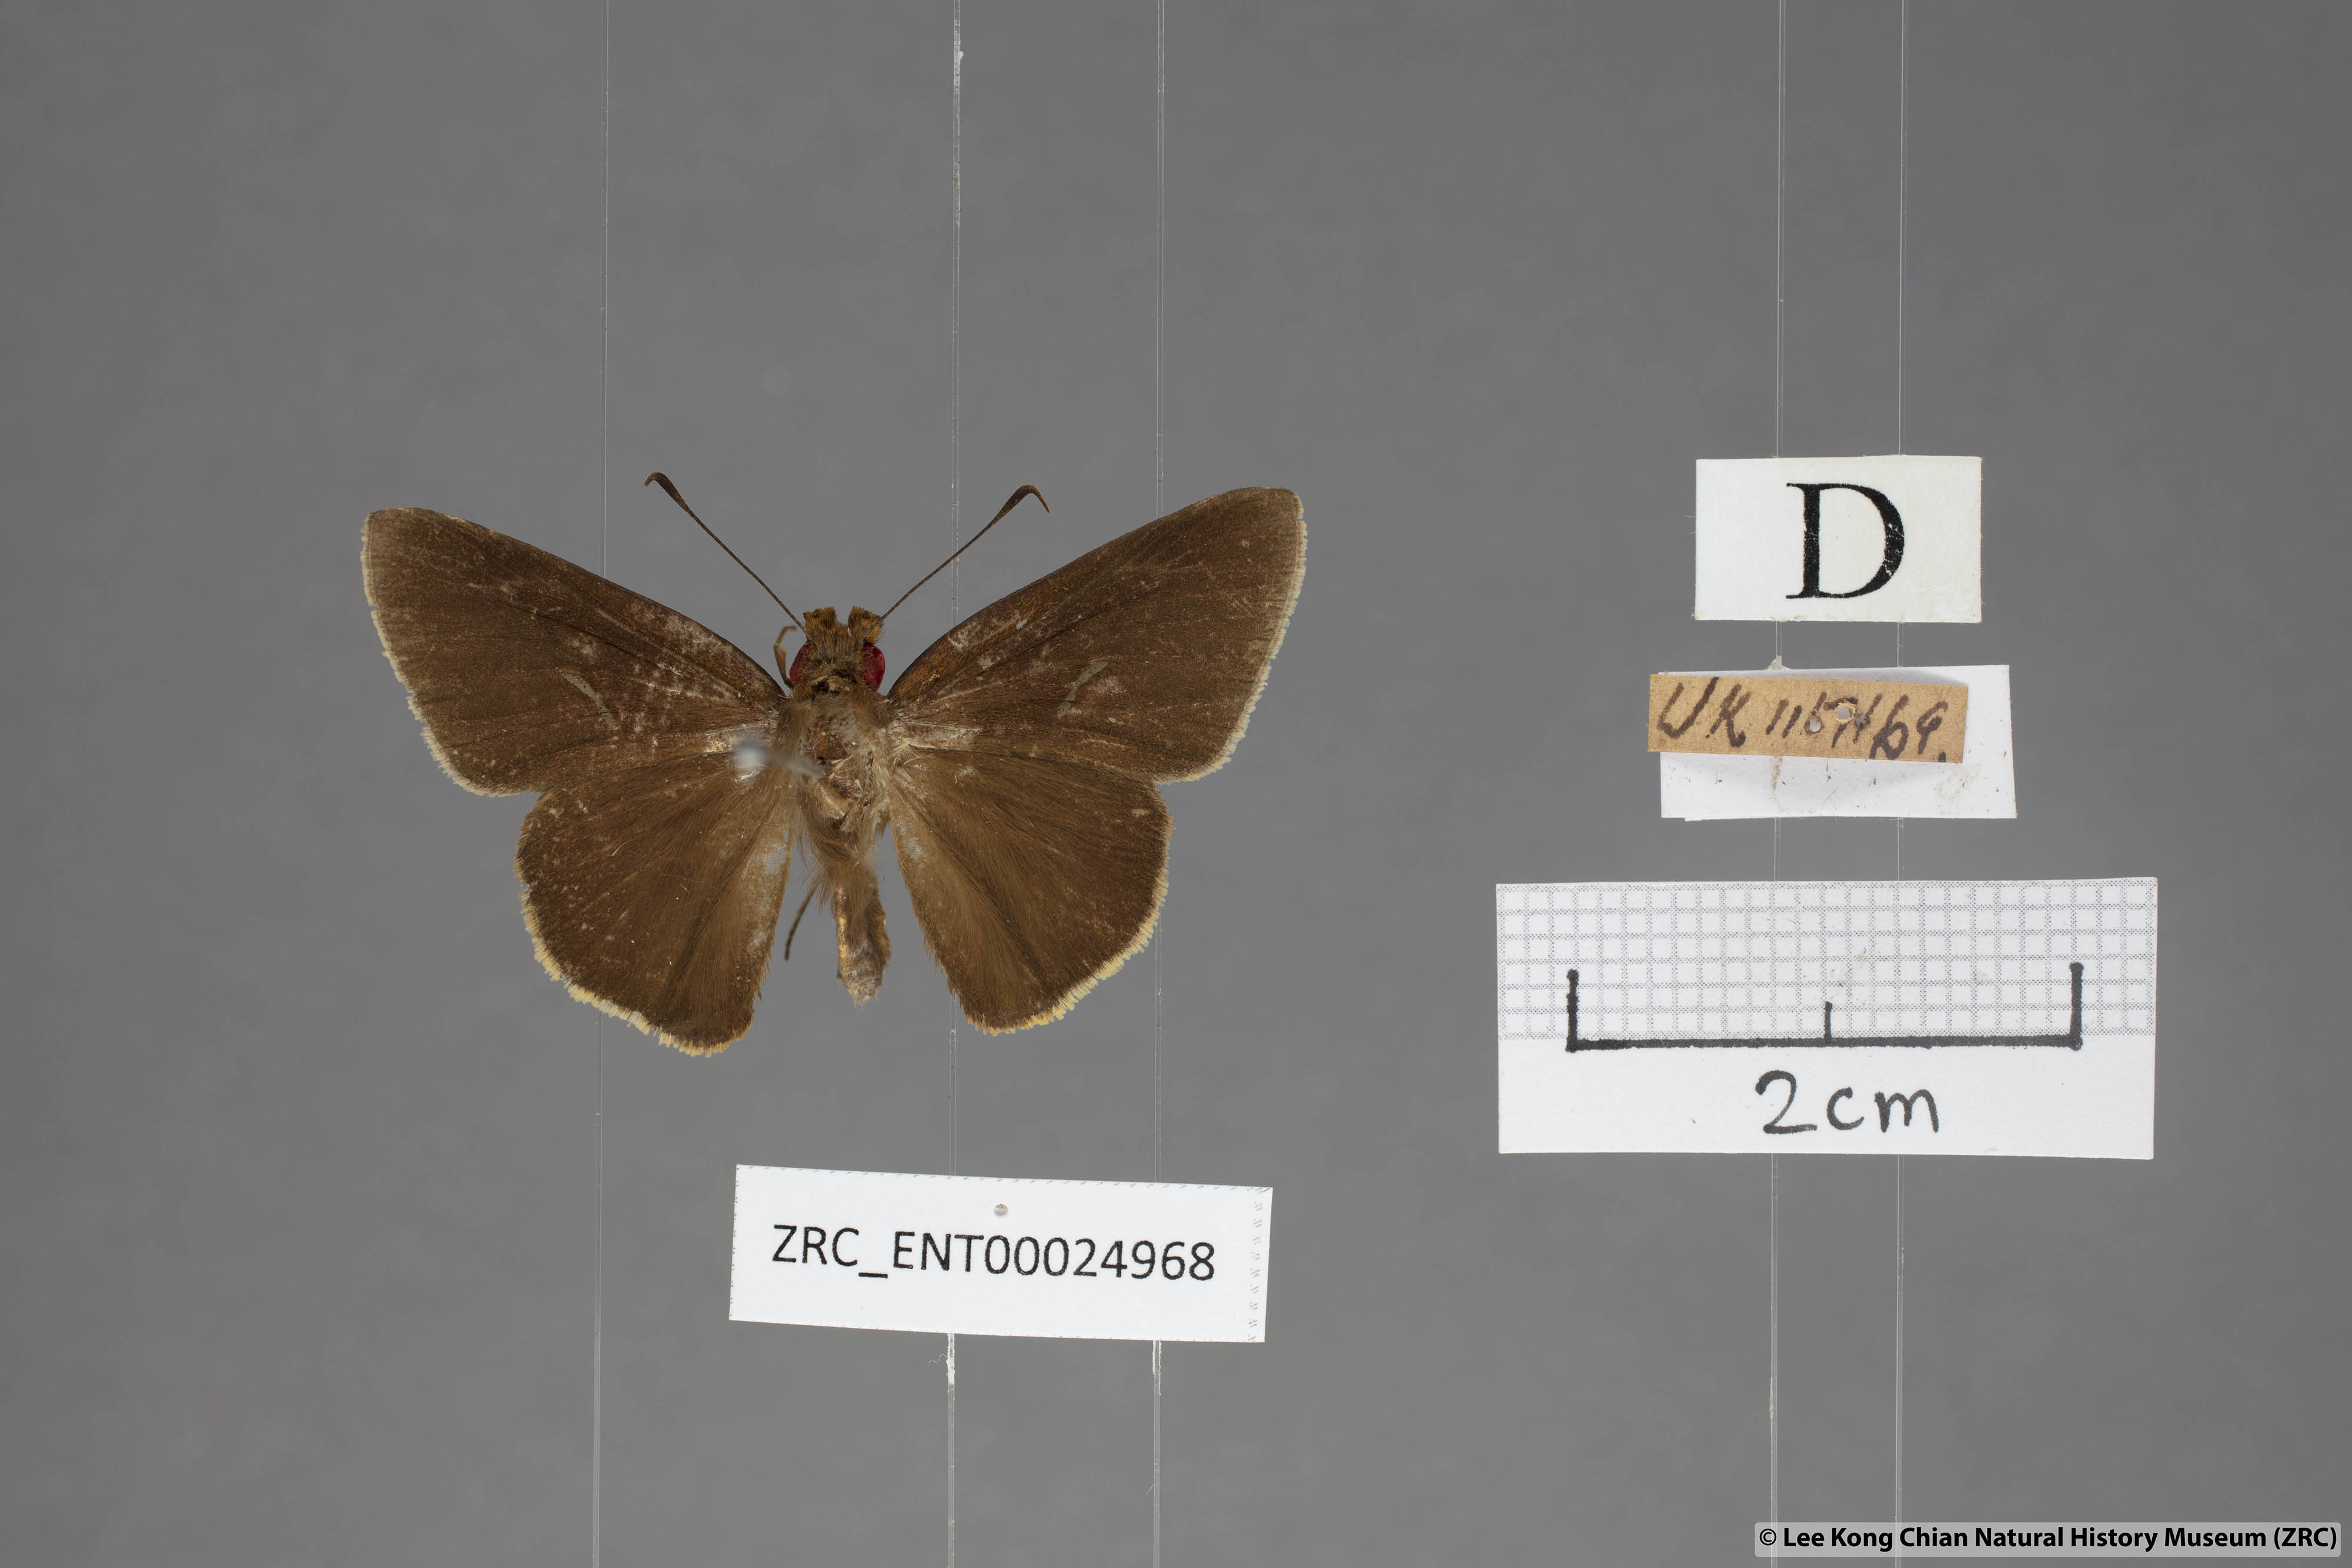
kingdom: Animalia
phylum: Arthropoda
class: Insecta
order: Lepidoptera
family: Hesperiidae
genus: Matapa
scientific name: Matapa aria
